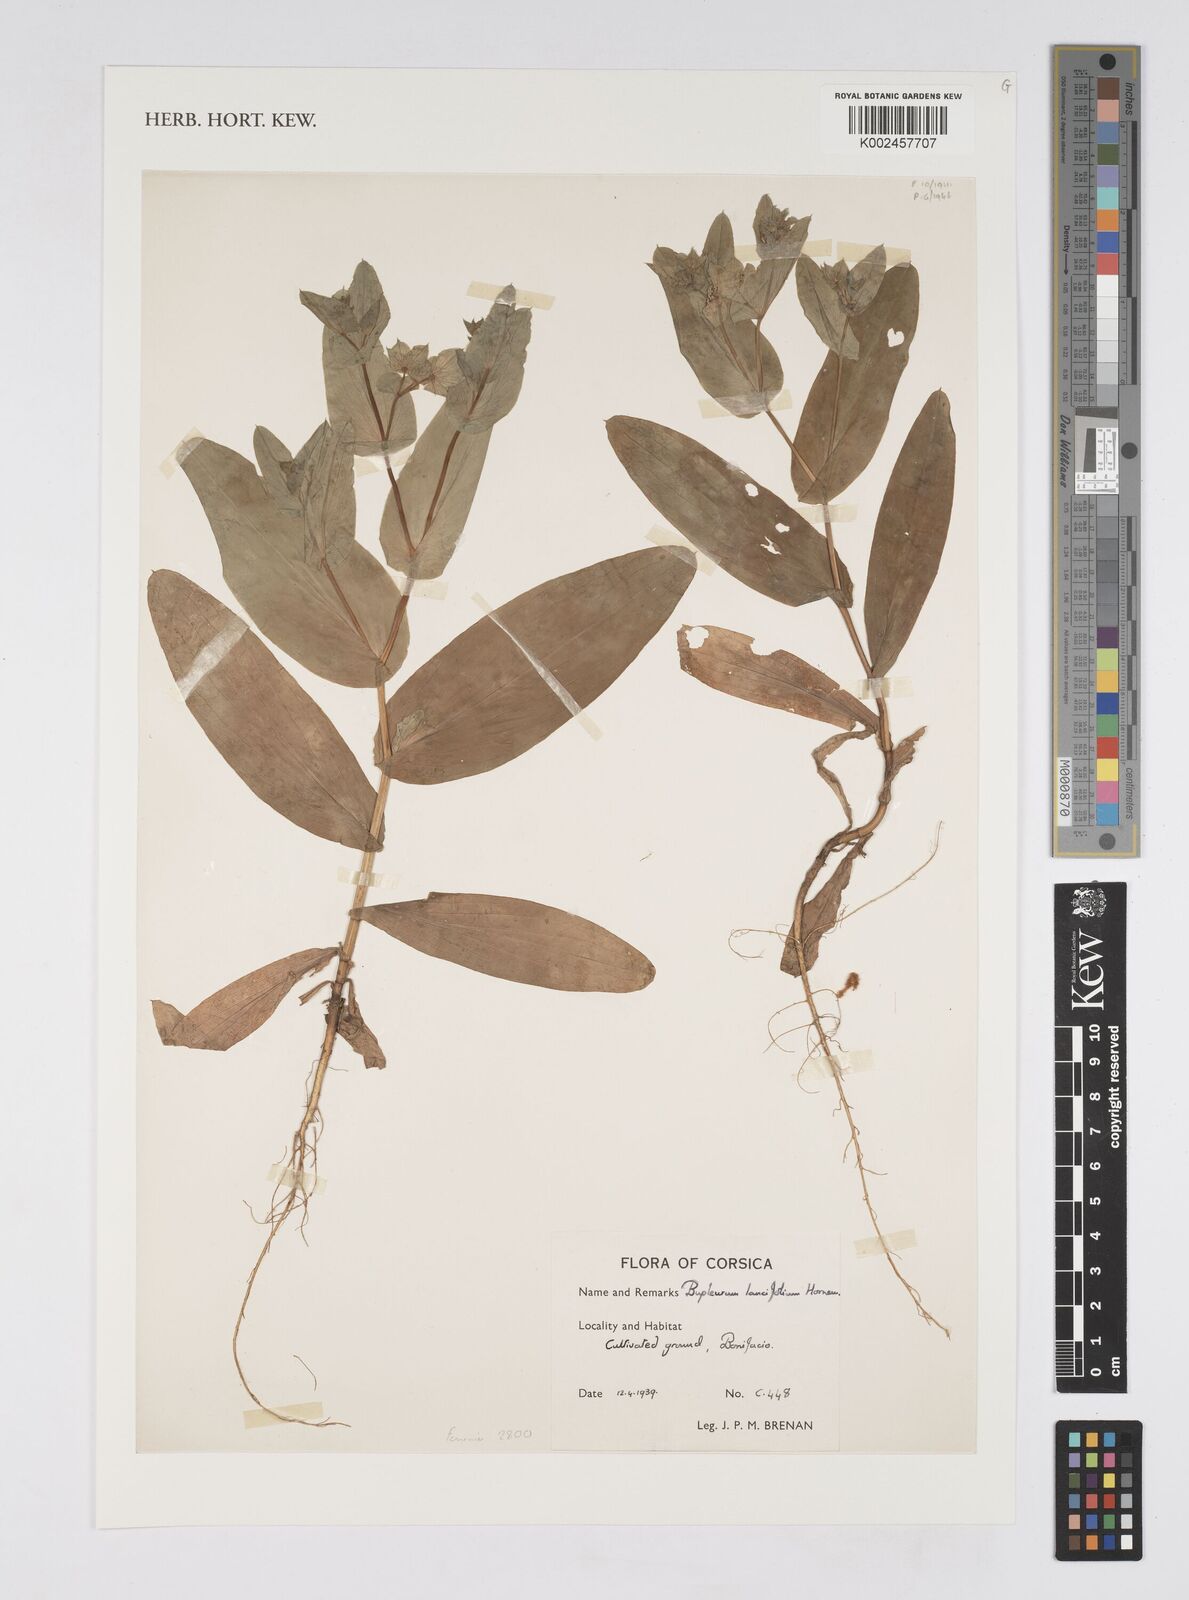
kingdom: Plantae
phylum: Tracheophyta
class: Magnoliopsida
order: Apiales
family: Apiaceae
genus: Bupleurum
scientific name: Bupleurum lancifolium
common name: False thorow-wax
